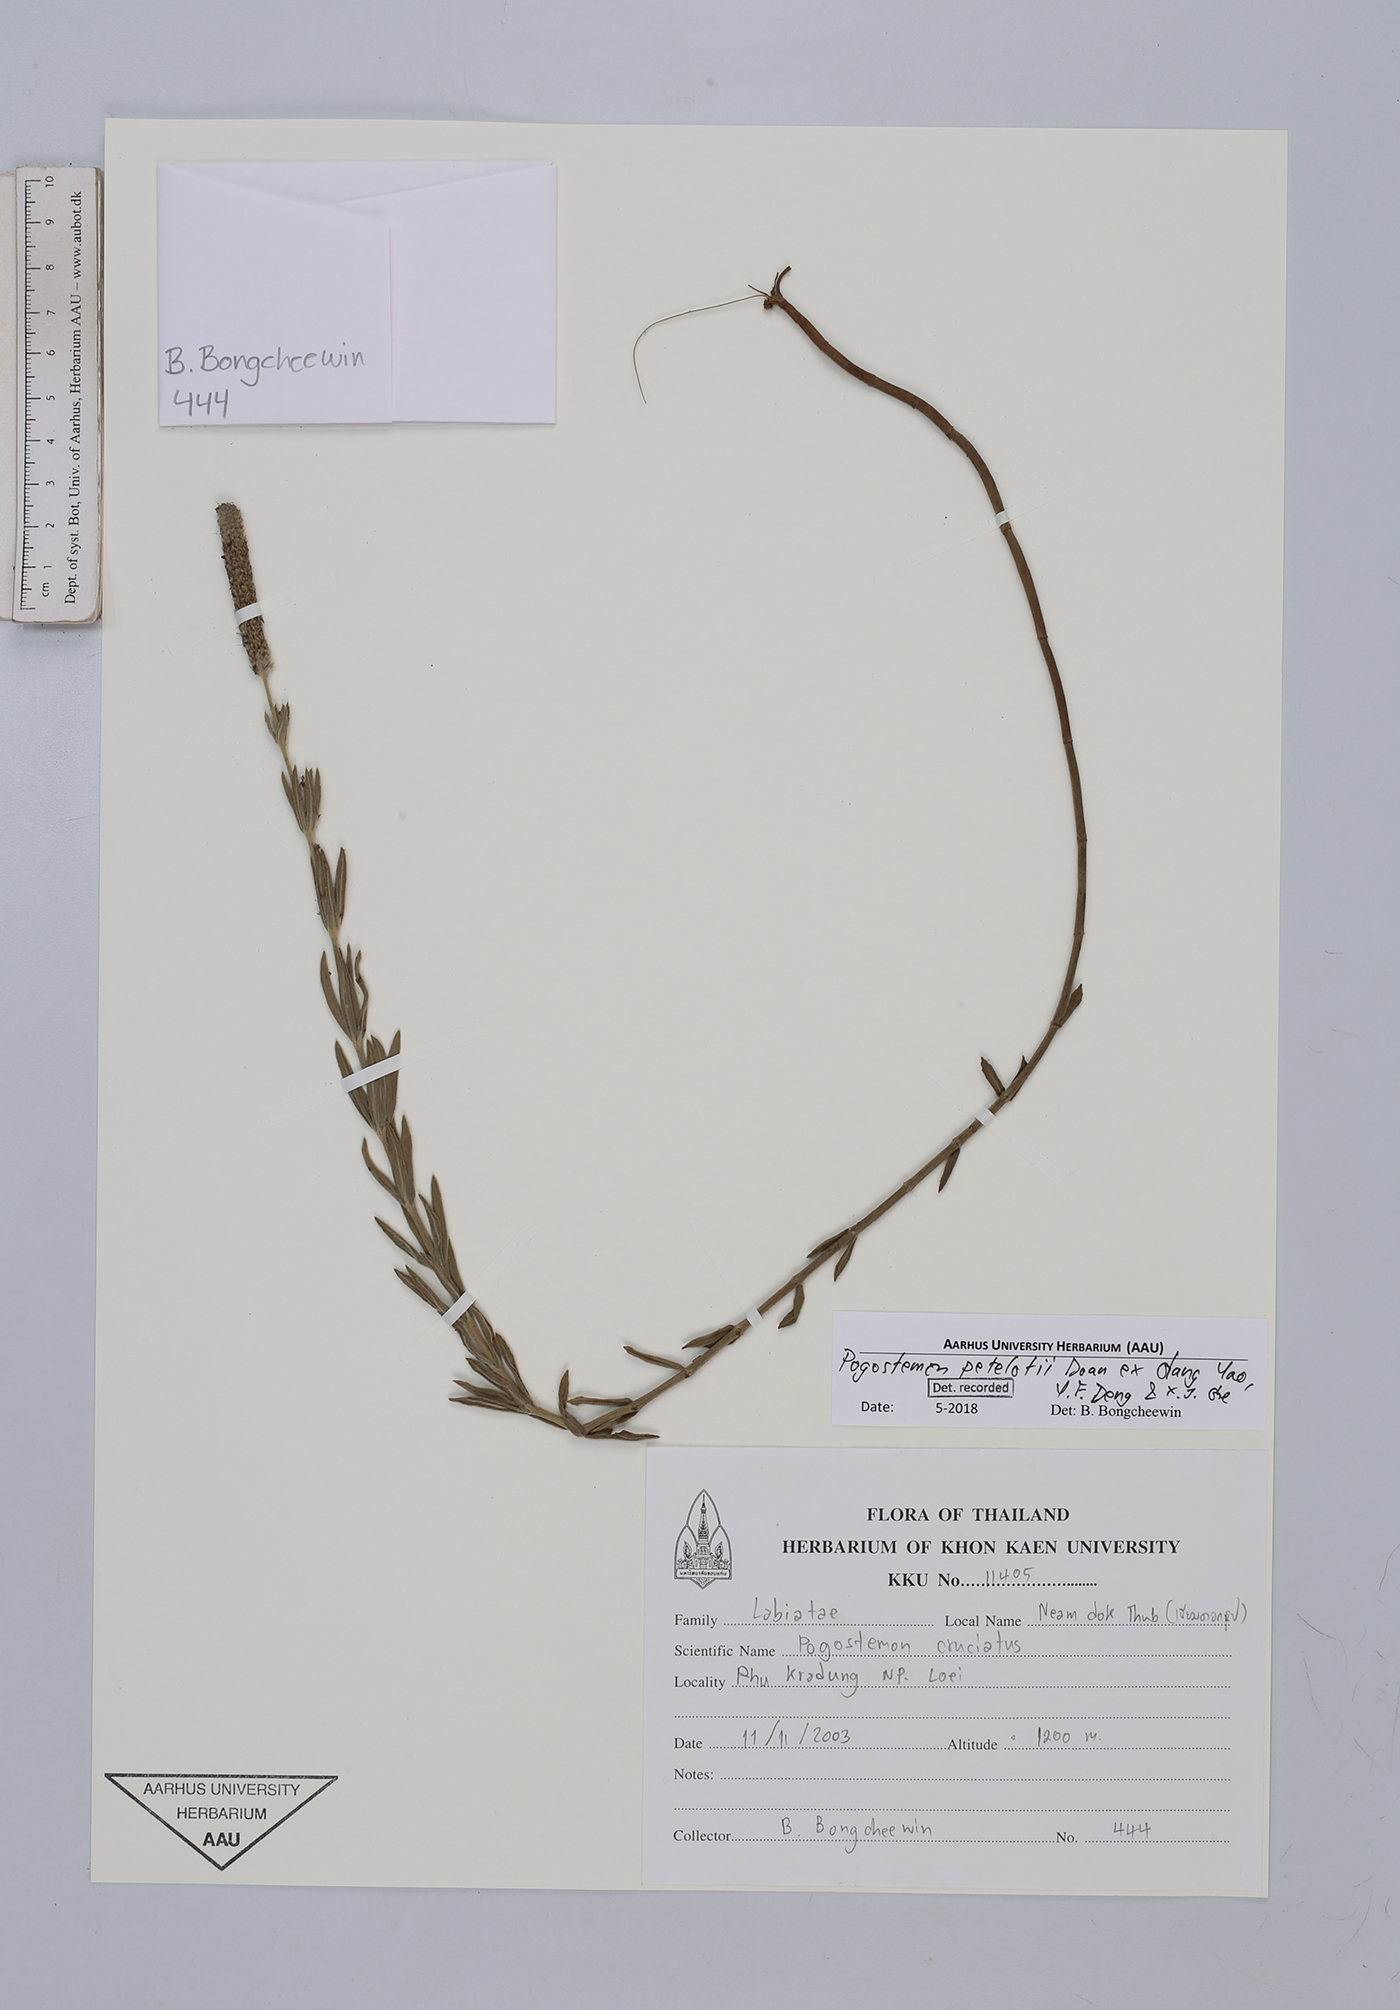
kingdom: Plantae
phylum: Tracheophyta
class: Magnoliopsida
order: Lamiales
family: Lamiaceae
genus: Pogostemon
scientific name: Pogostemon petelotii
